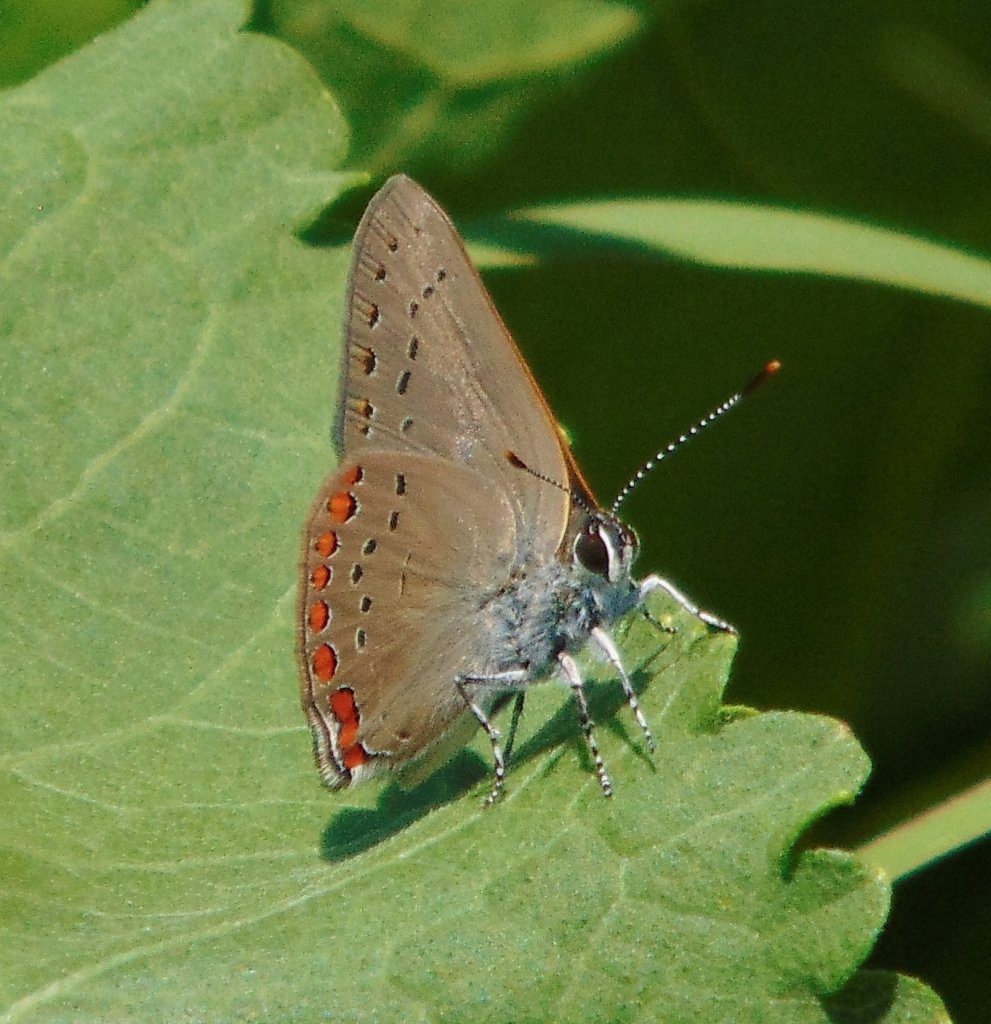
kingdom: Animalia
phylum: Arthropoda
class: Insecta
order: Lepidoptera
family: Lycaenidae
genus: Harkenclenus
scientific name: Harkenclenus titus
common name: Coral Hairstreak
